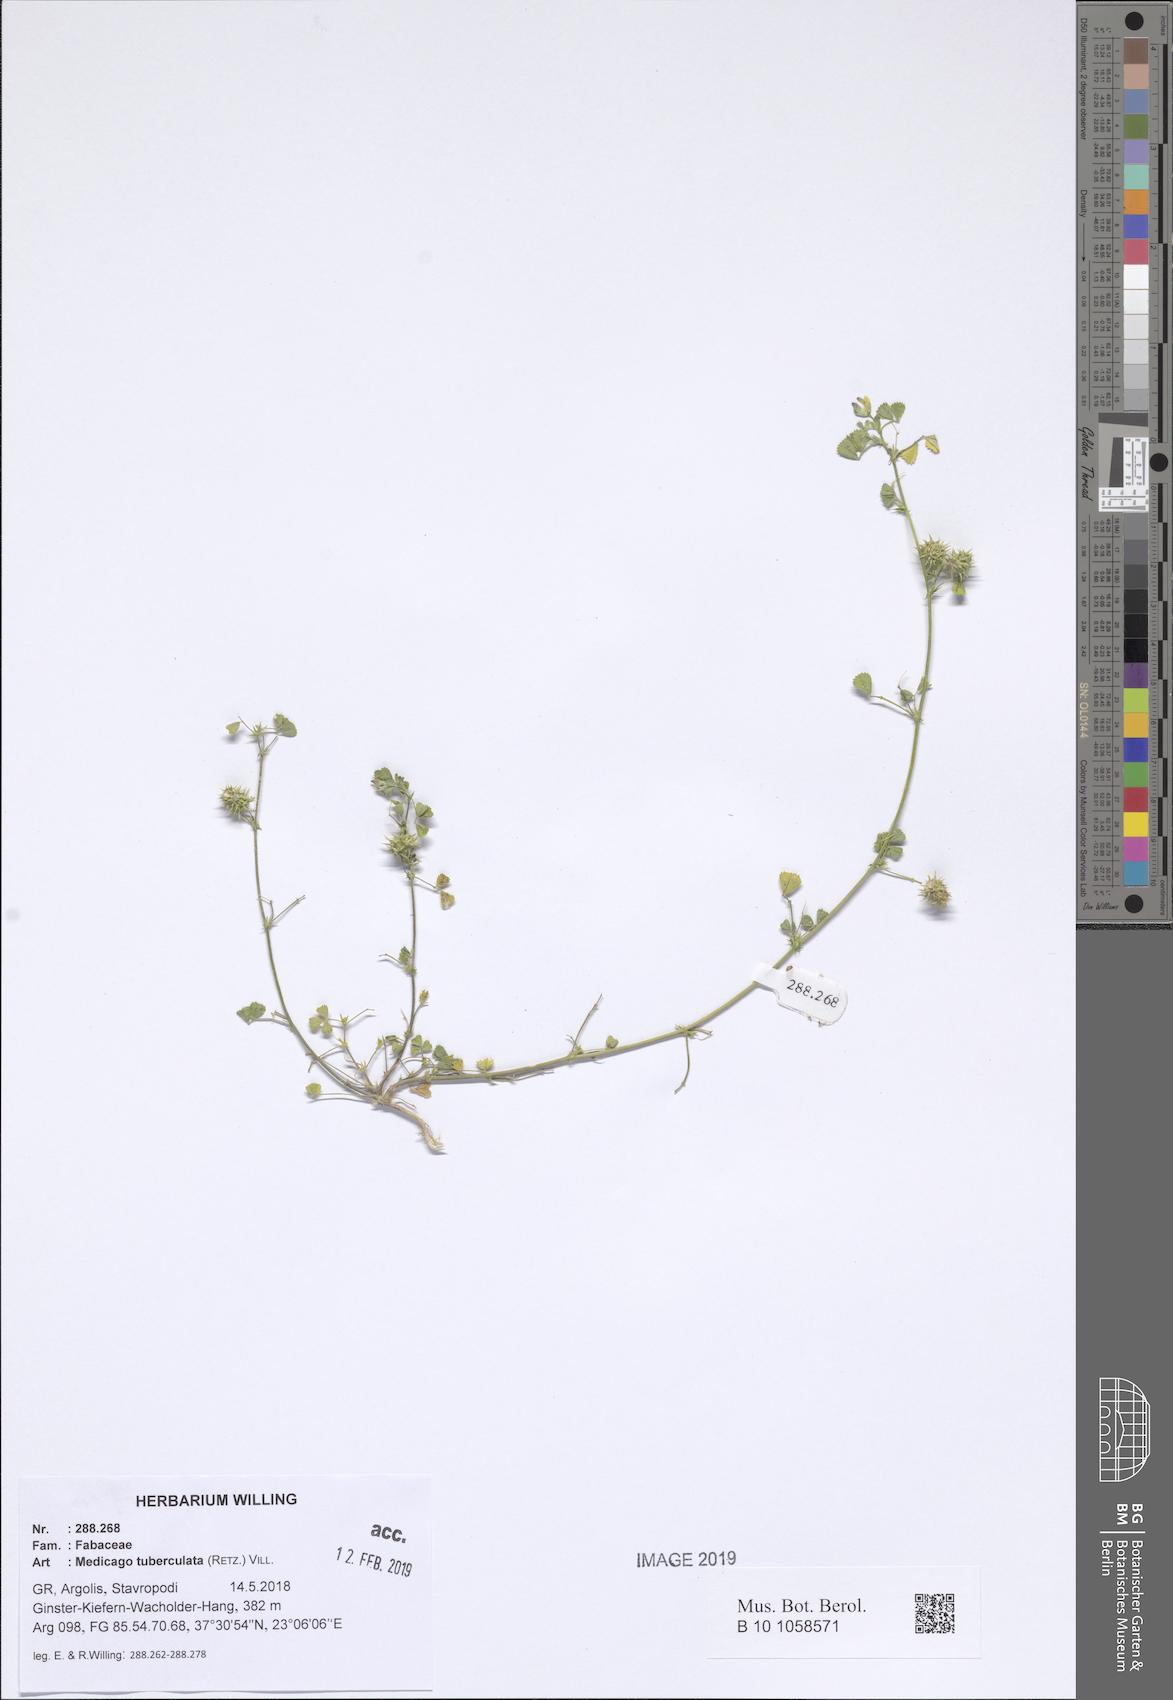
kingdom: Plantae
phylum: Tracheophyta
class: Magnoliopsida
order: Fabales
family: Fabaceae
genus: Medicago
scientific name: Medicago turbinata
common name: Southern medick
